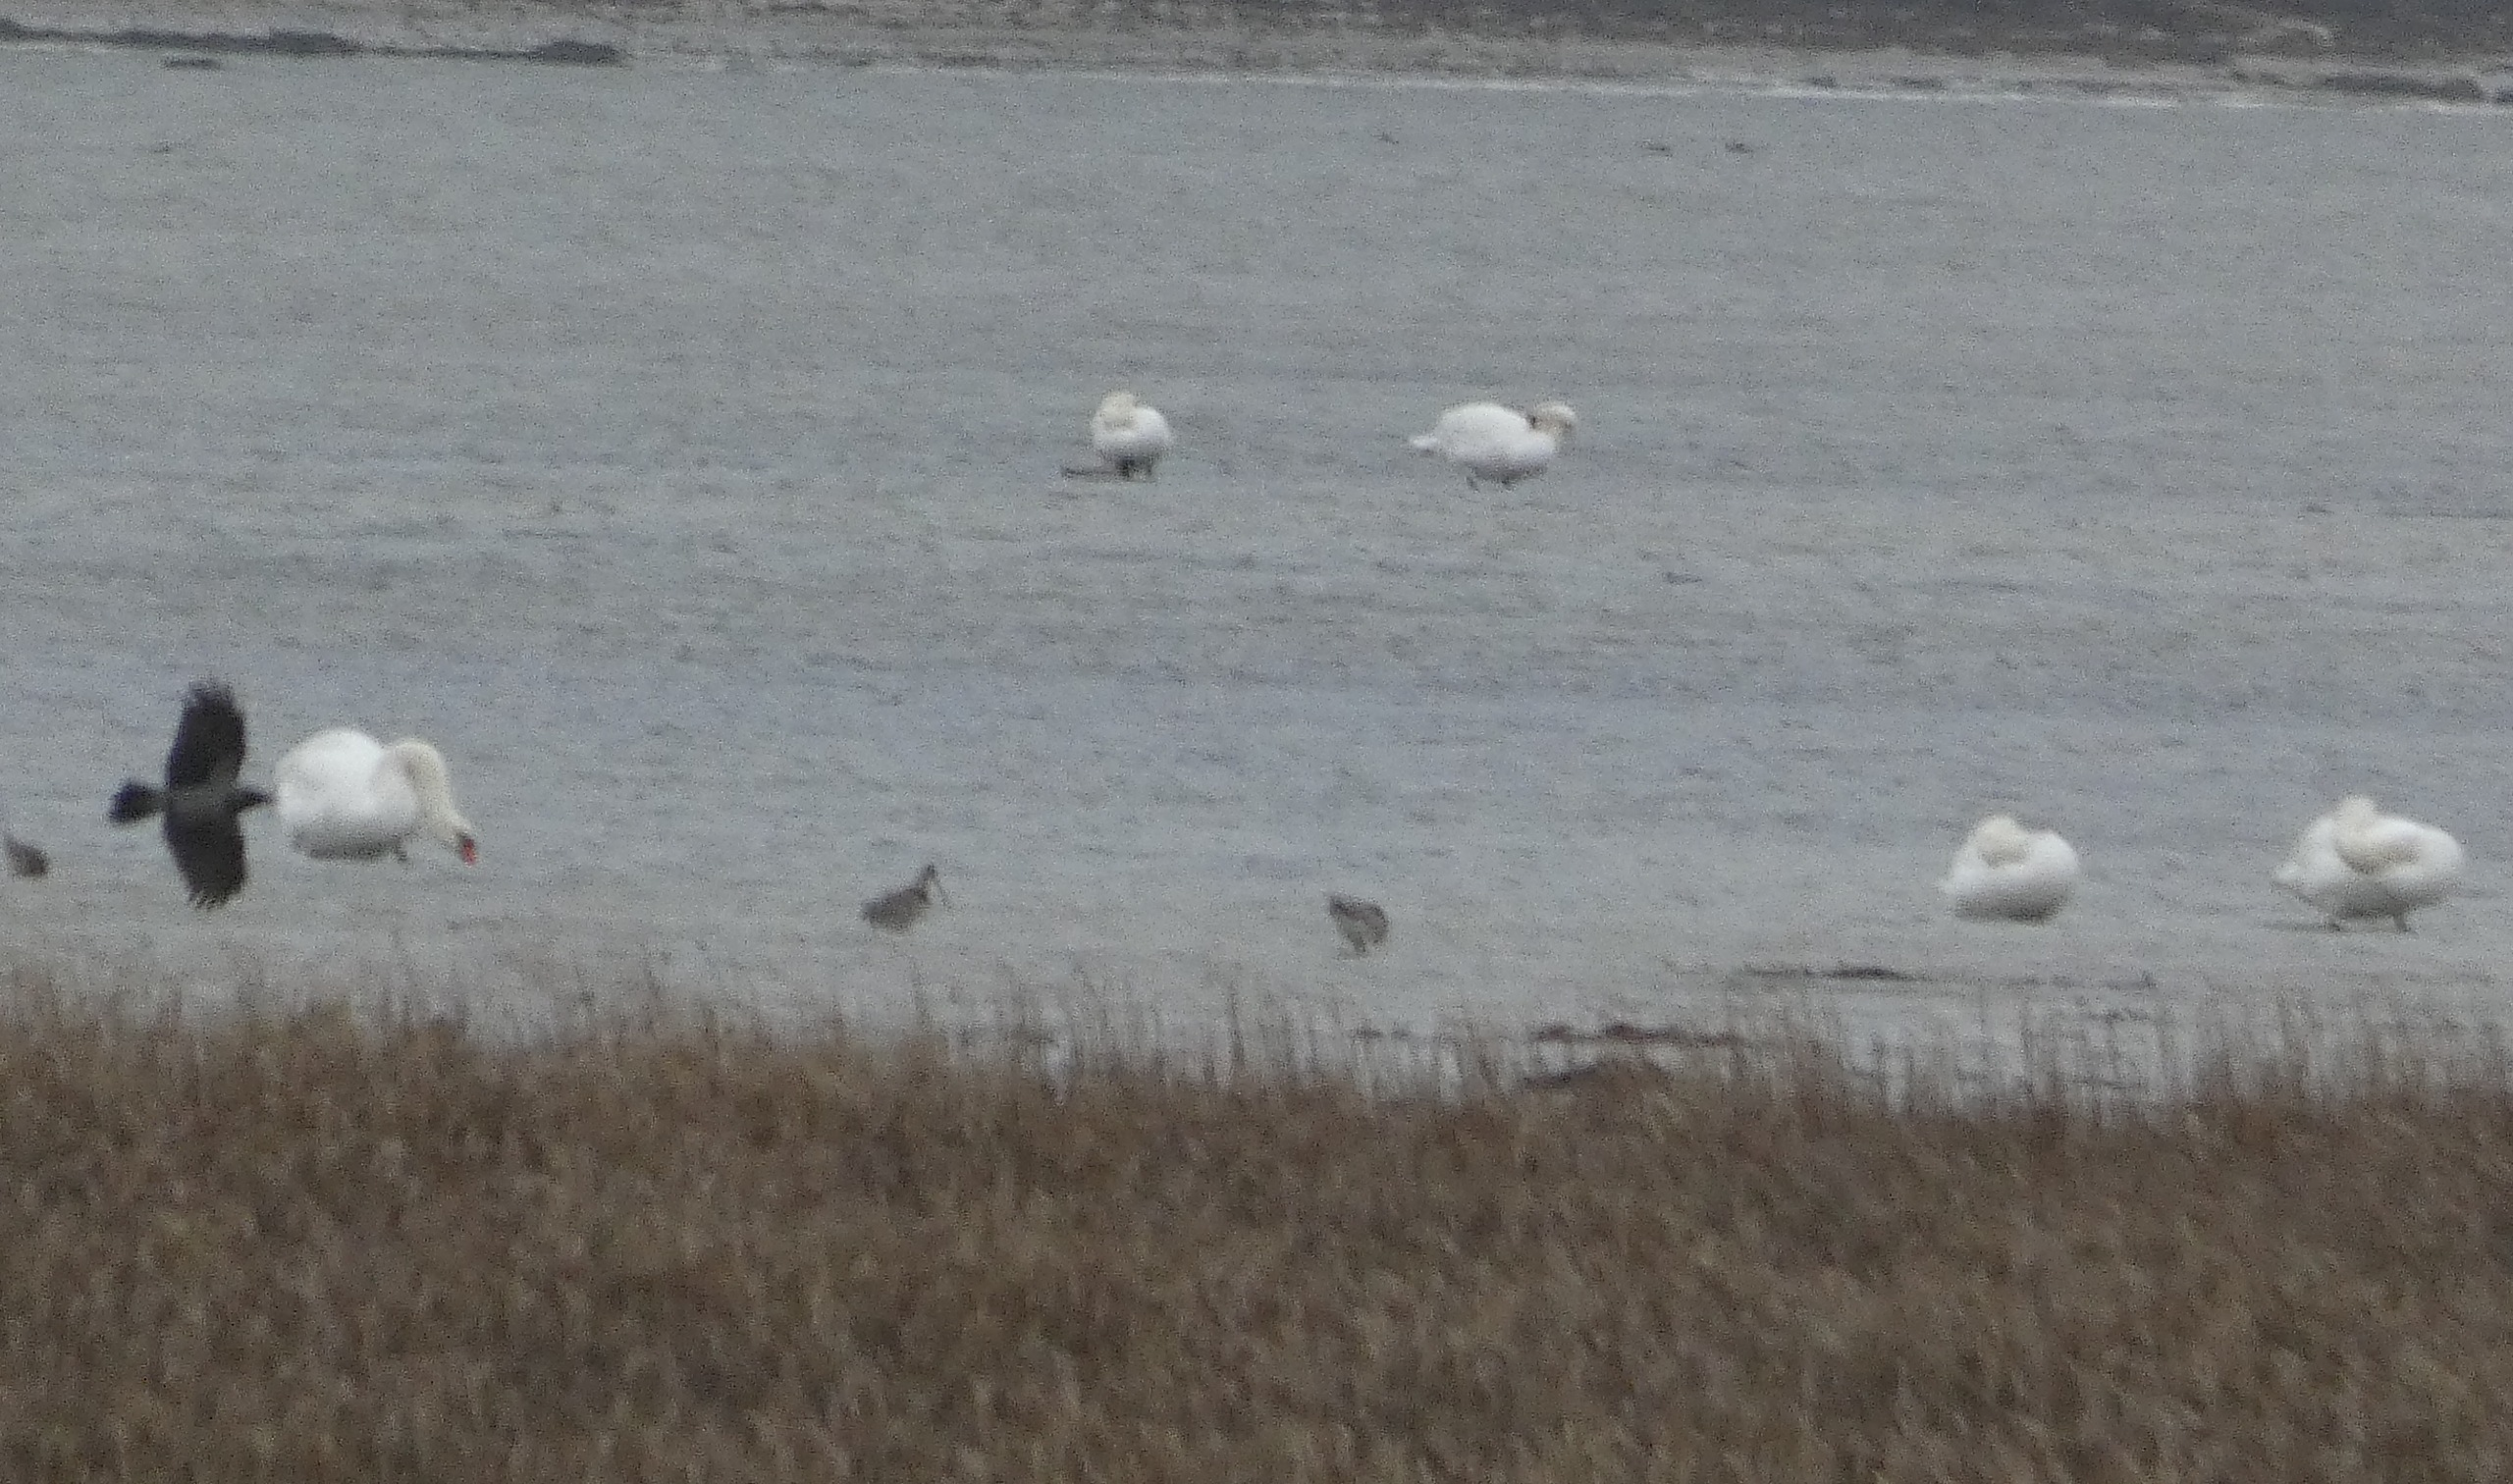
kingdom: Animalia
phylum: Chordata
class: Aves
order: Passeriformes
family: Corvidae
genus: Corvus
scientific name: Corvus cornix
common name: Gråkrage
